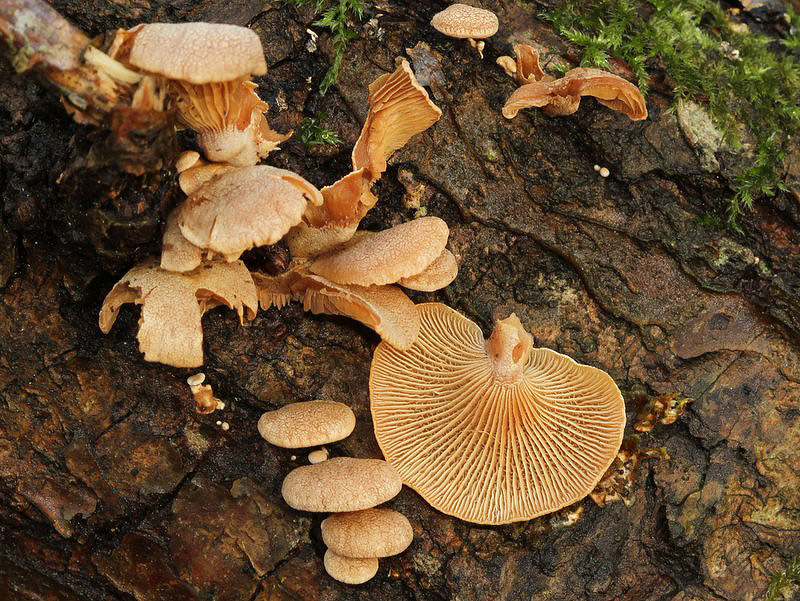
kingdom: Fungi
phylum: Basidiomycota
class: Agaricomycetes
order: Agaricales
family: Mycenaceae
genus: Panellus
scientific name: Panellus stipticus
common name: kliddet epaulethat
